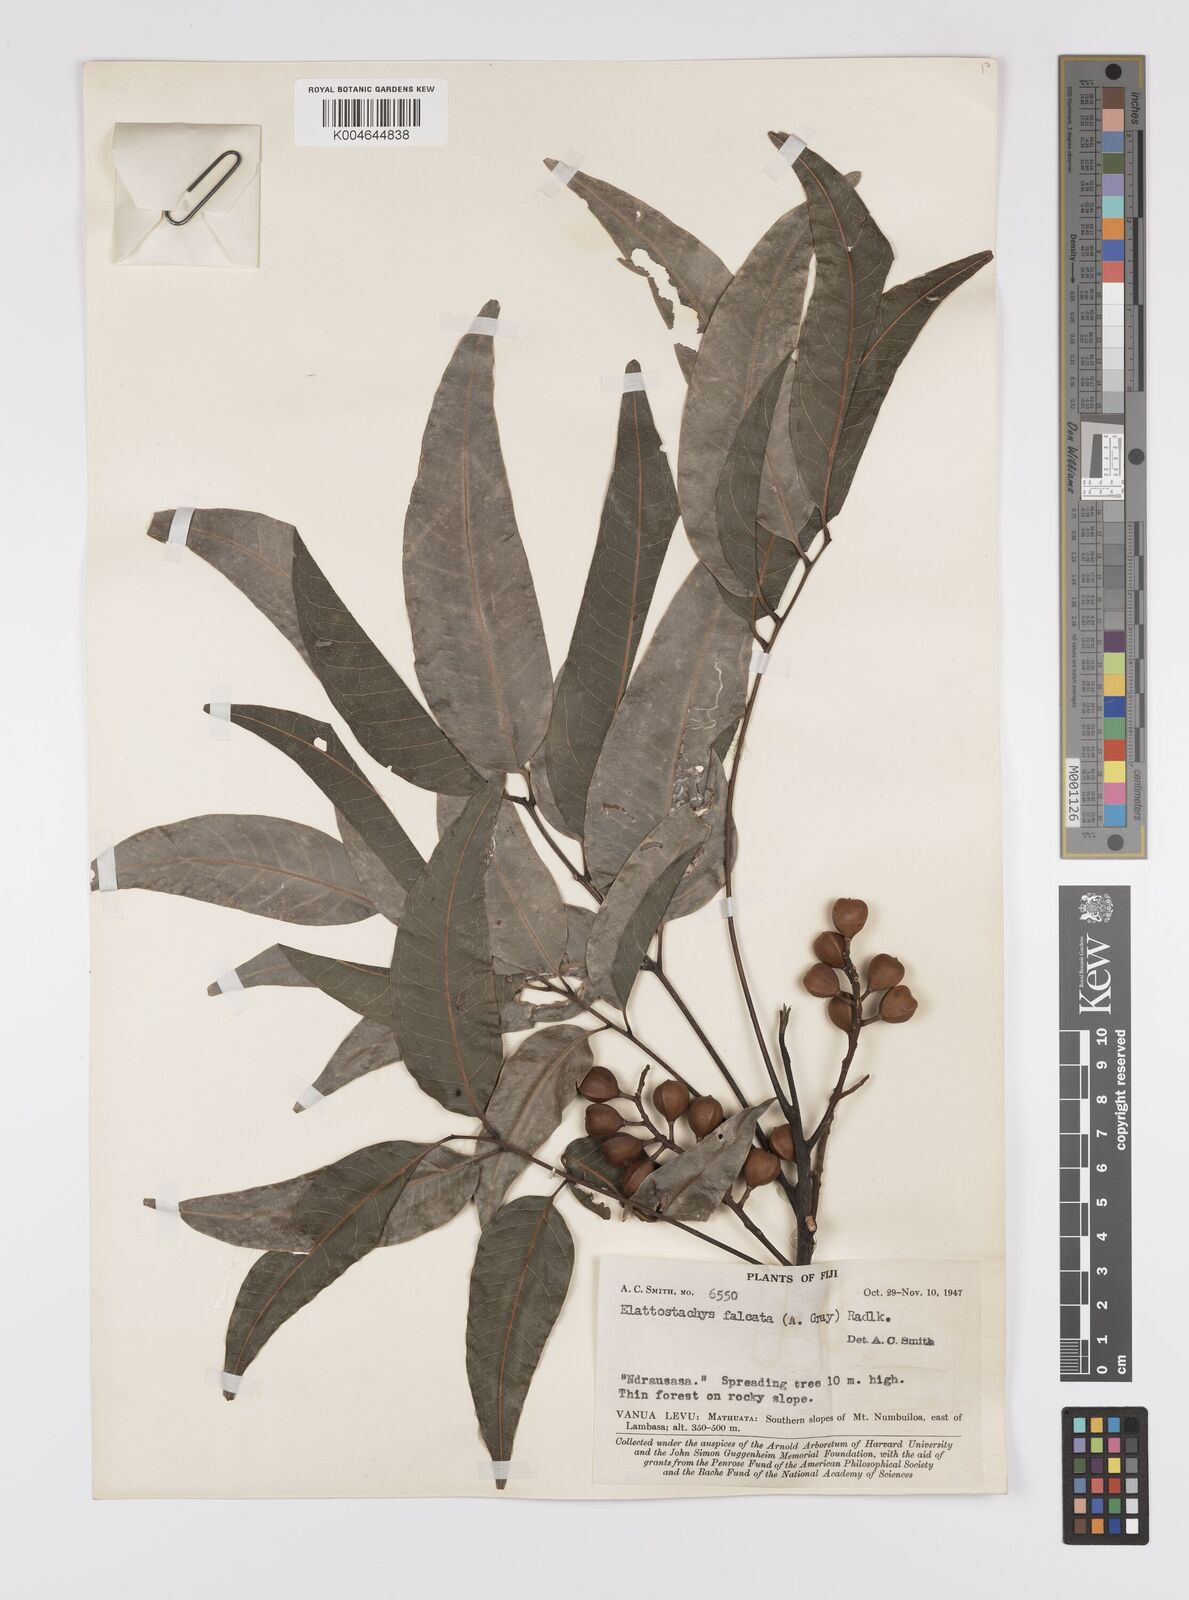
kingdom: Plantae
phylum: Tracheophyta
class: Magnoliopsida
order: Sapindales
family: Sapindaceae
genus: Elattostachys
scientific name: Elattostachys apetala
